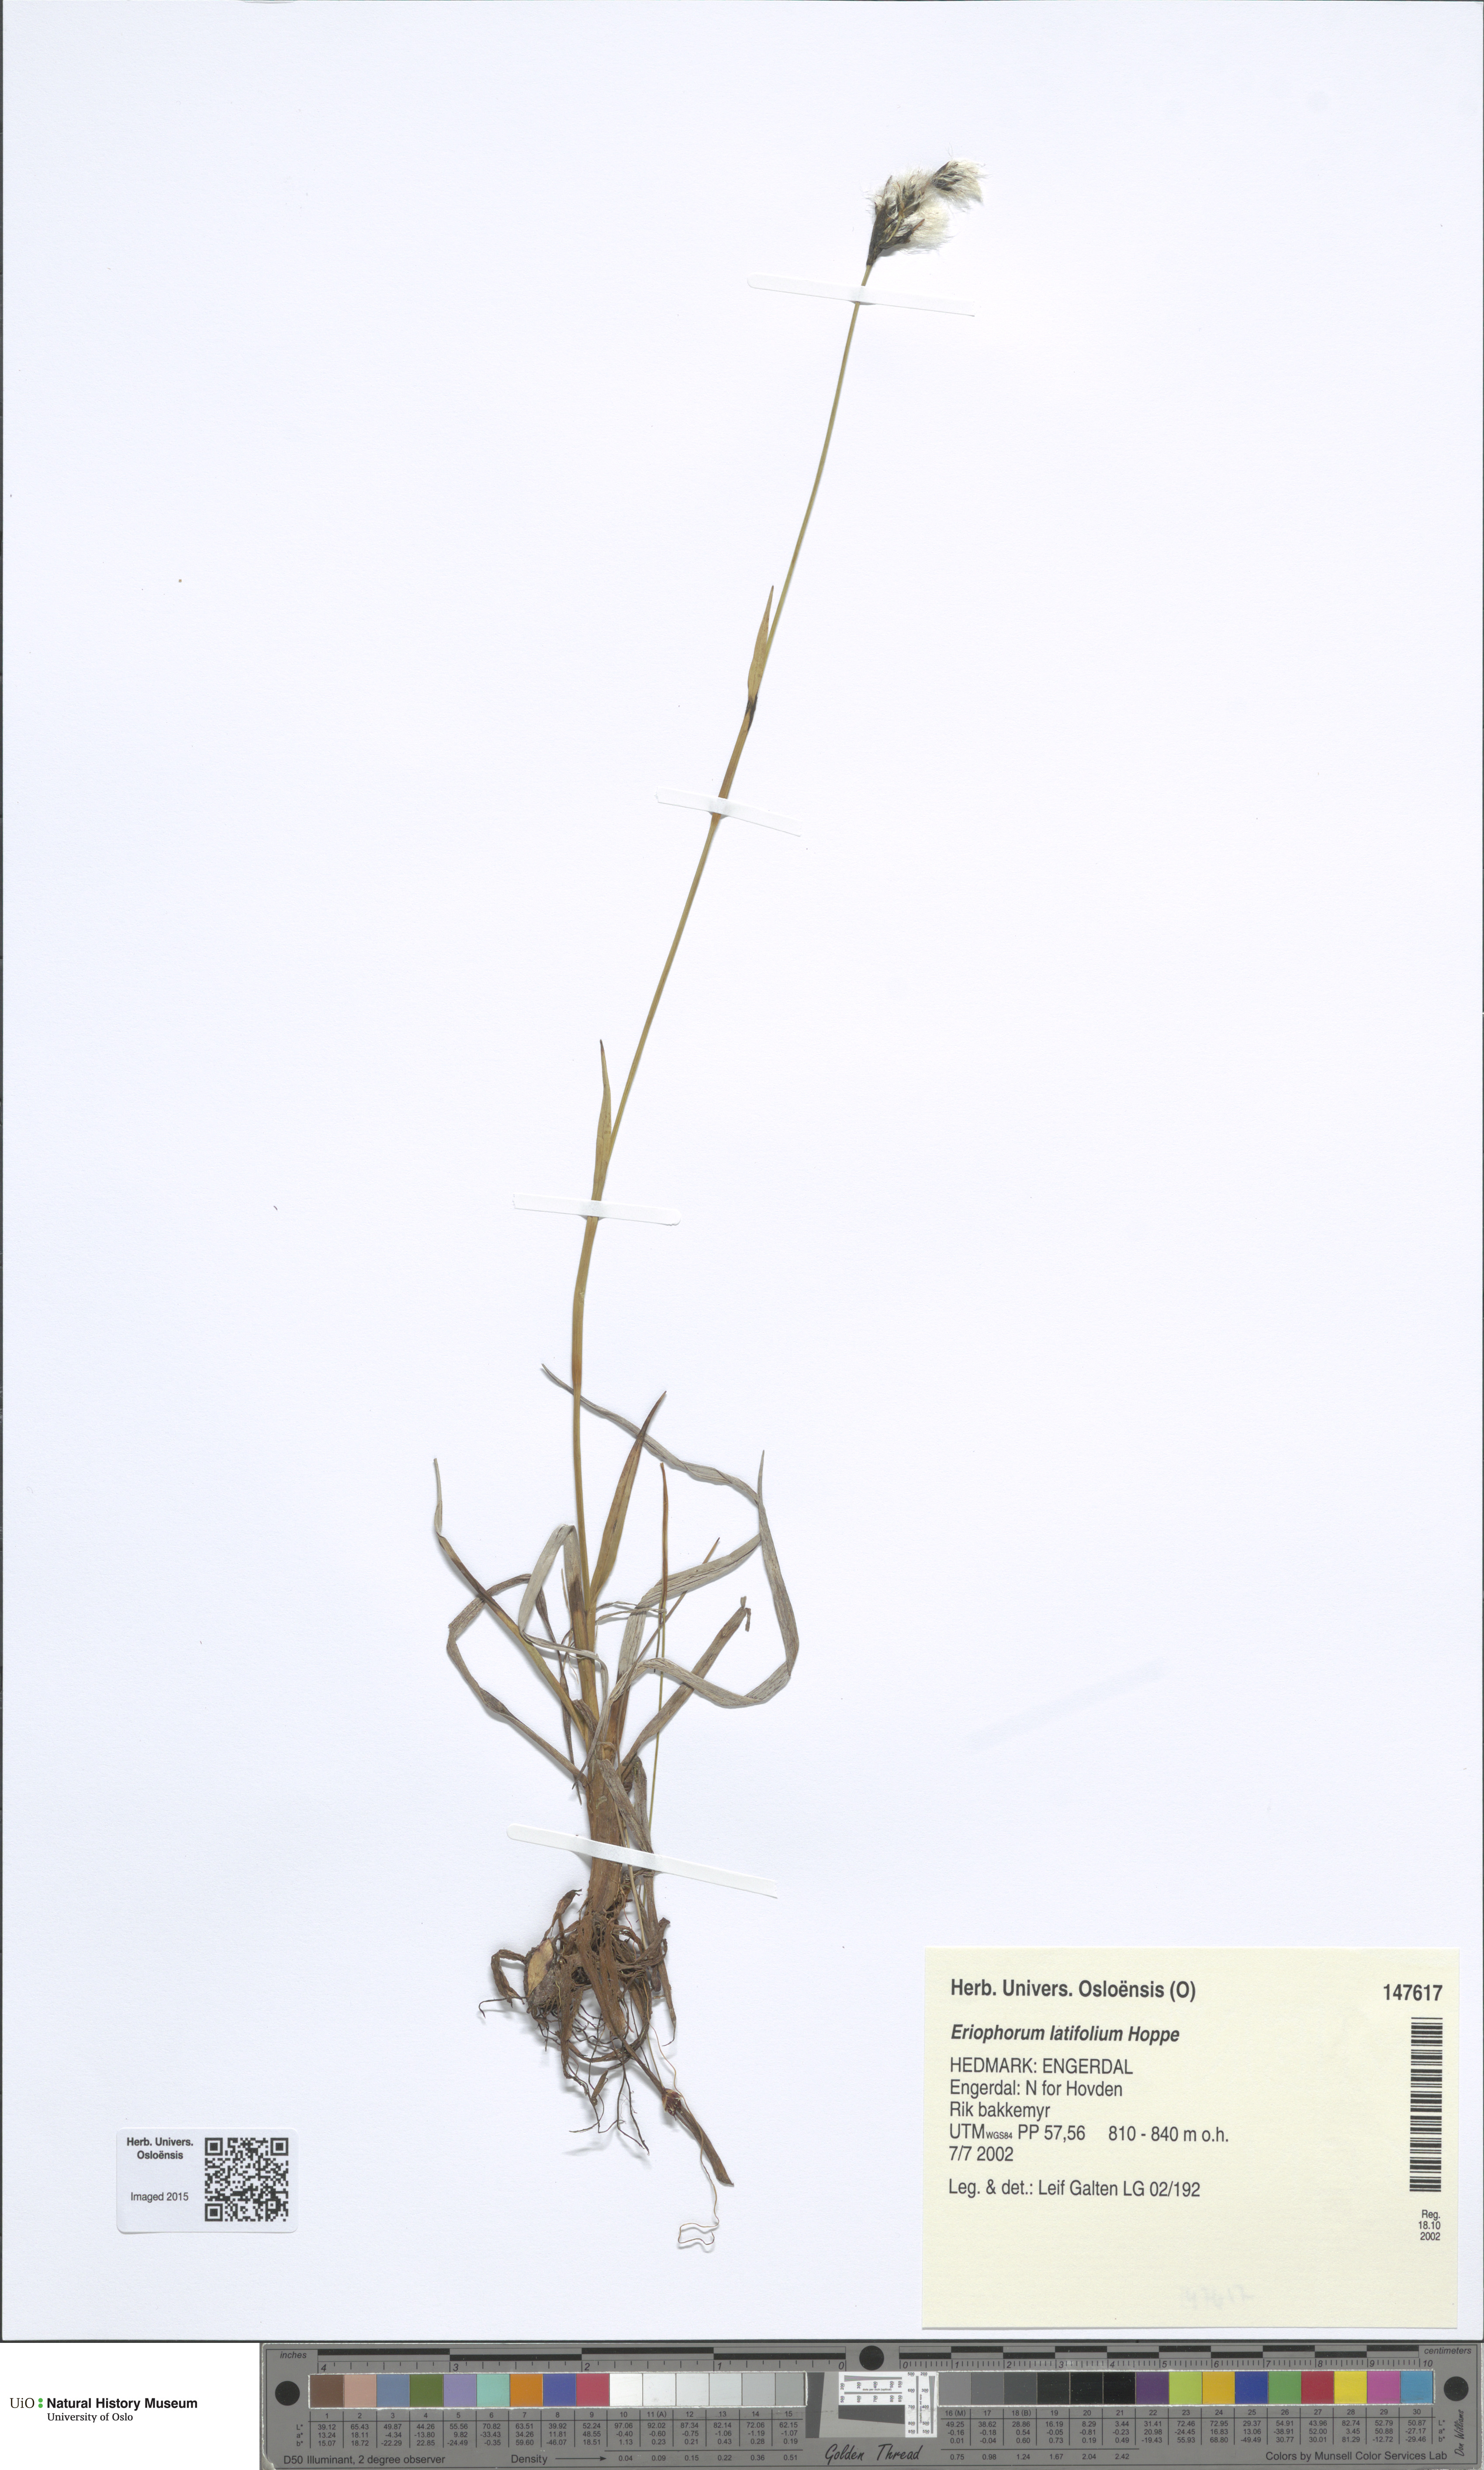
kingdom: Plantae
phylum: Tracheophyta
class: Liliopsida
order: Poales
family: Cyperaceae
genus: Eriophorum
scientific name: Eriophorum latifolium
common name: Broad-leaved cottongrass
